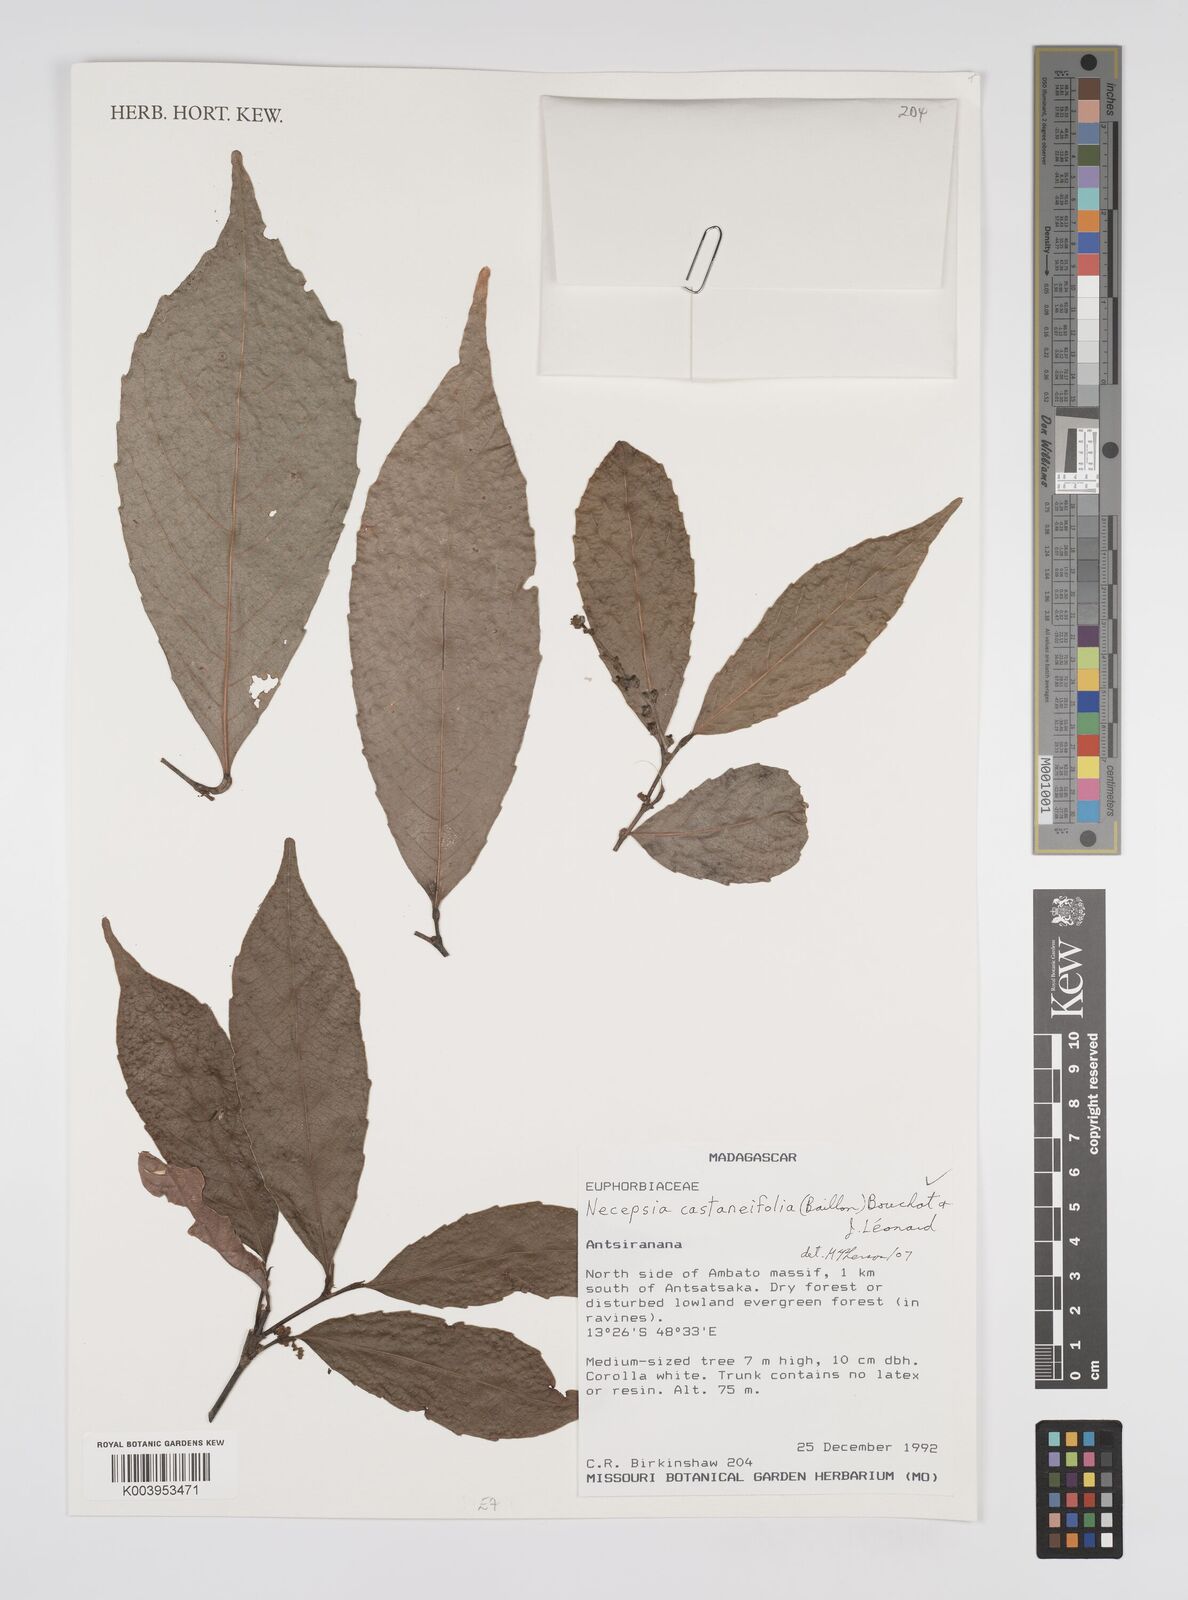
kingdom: Plantae
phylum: Tracheophyta
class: Magnoliopsida
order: Malpighiales
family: Euphorbiaceae
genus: Necepsia
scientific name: Necepsia castaneifolia
